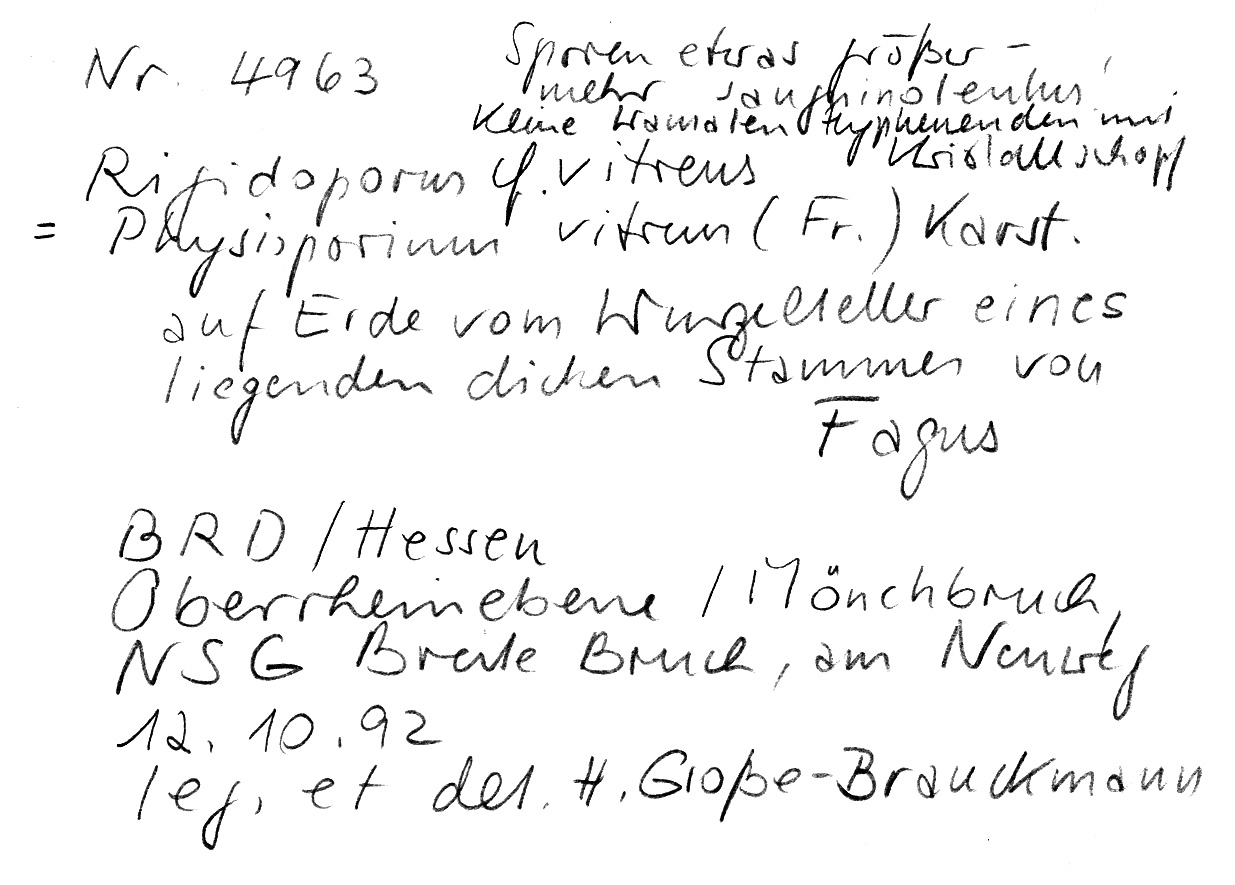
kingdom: Fungi
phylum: Basidiomycota
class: Agaricomycetes
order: Polyporales
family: Meruliaceae
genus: Physisporinus
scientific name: Physisporinus vitreus
